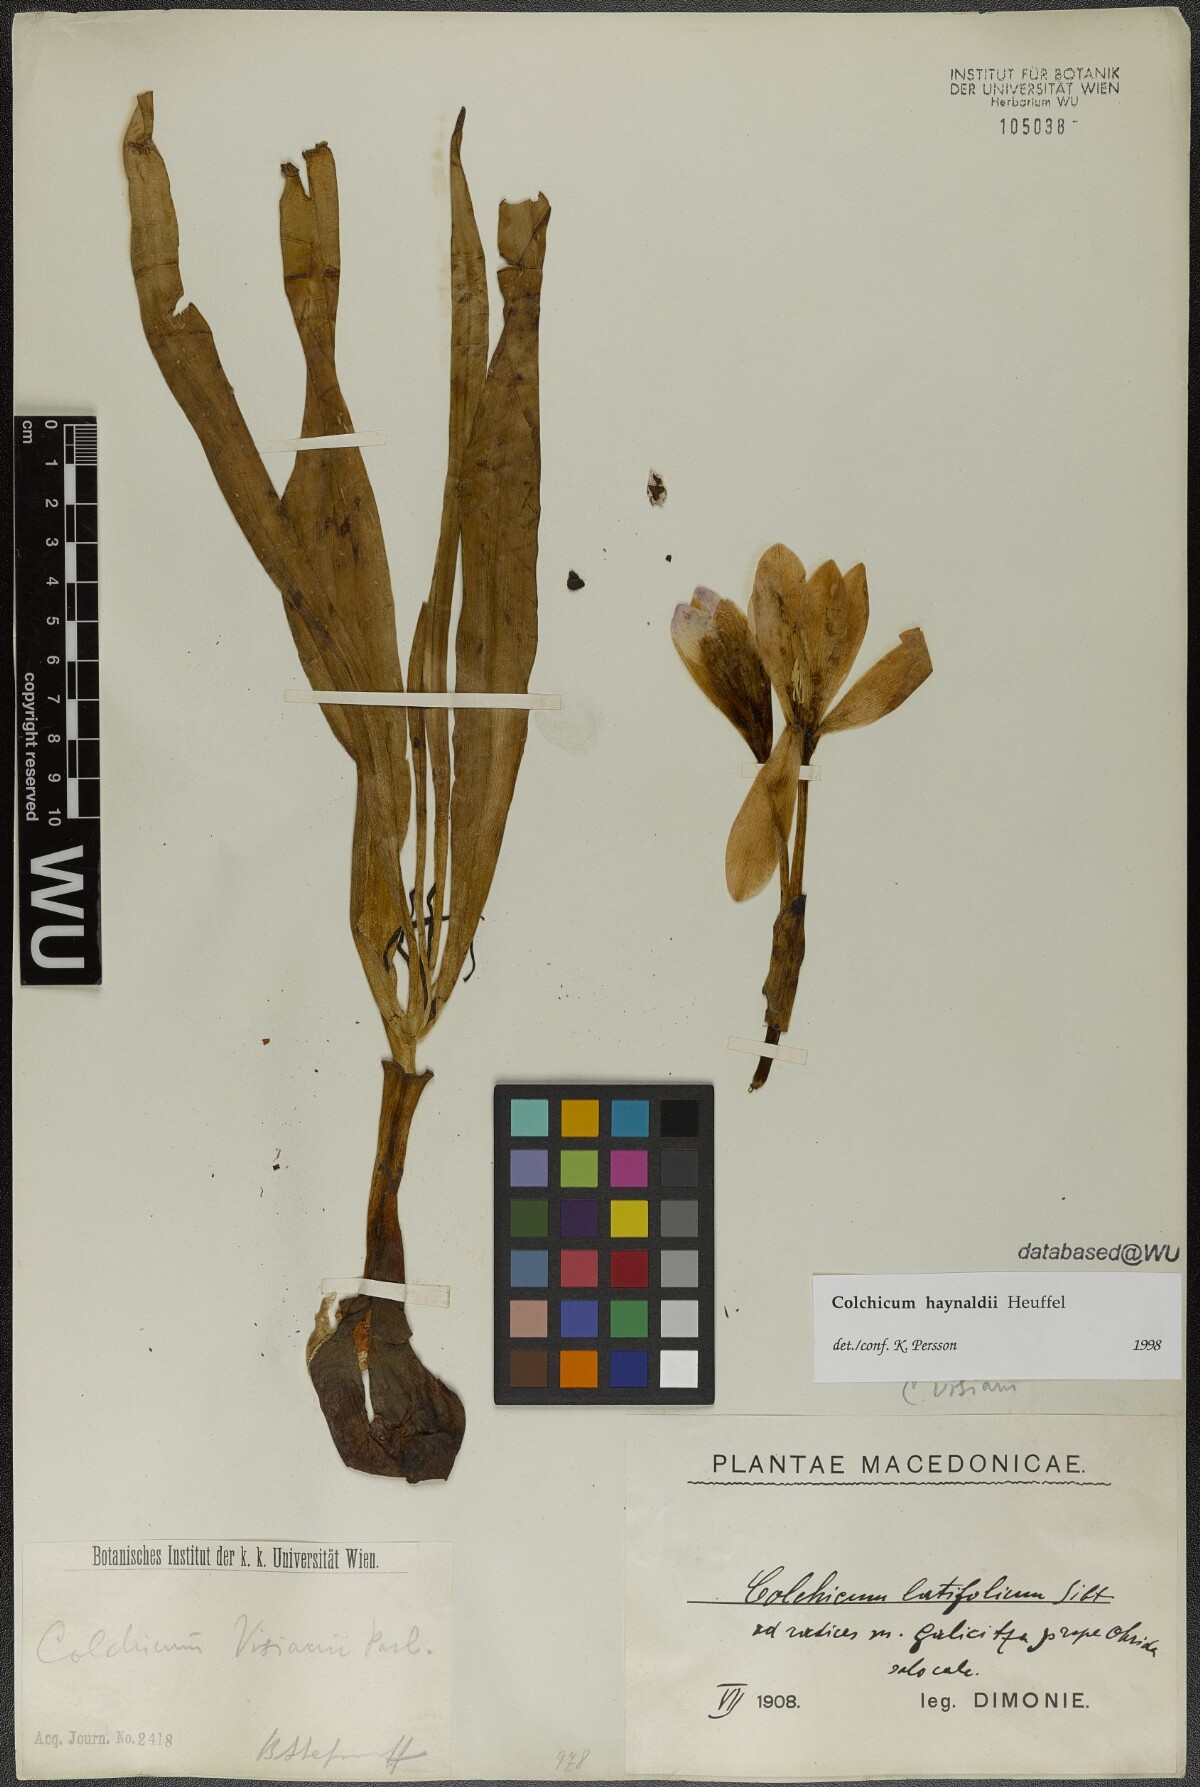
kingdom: Plantae
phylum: Tracheophyta
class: Liliopsida
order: Liliales
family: Colchicaceae
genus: Colchicum
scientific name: Colchicum haynaldii
